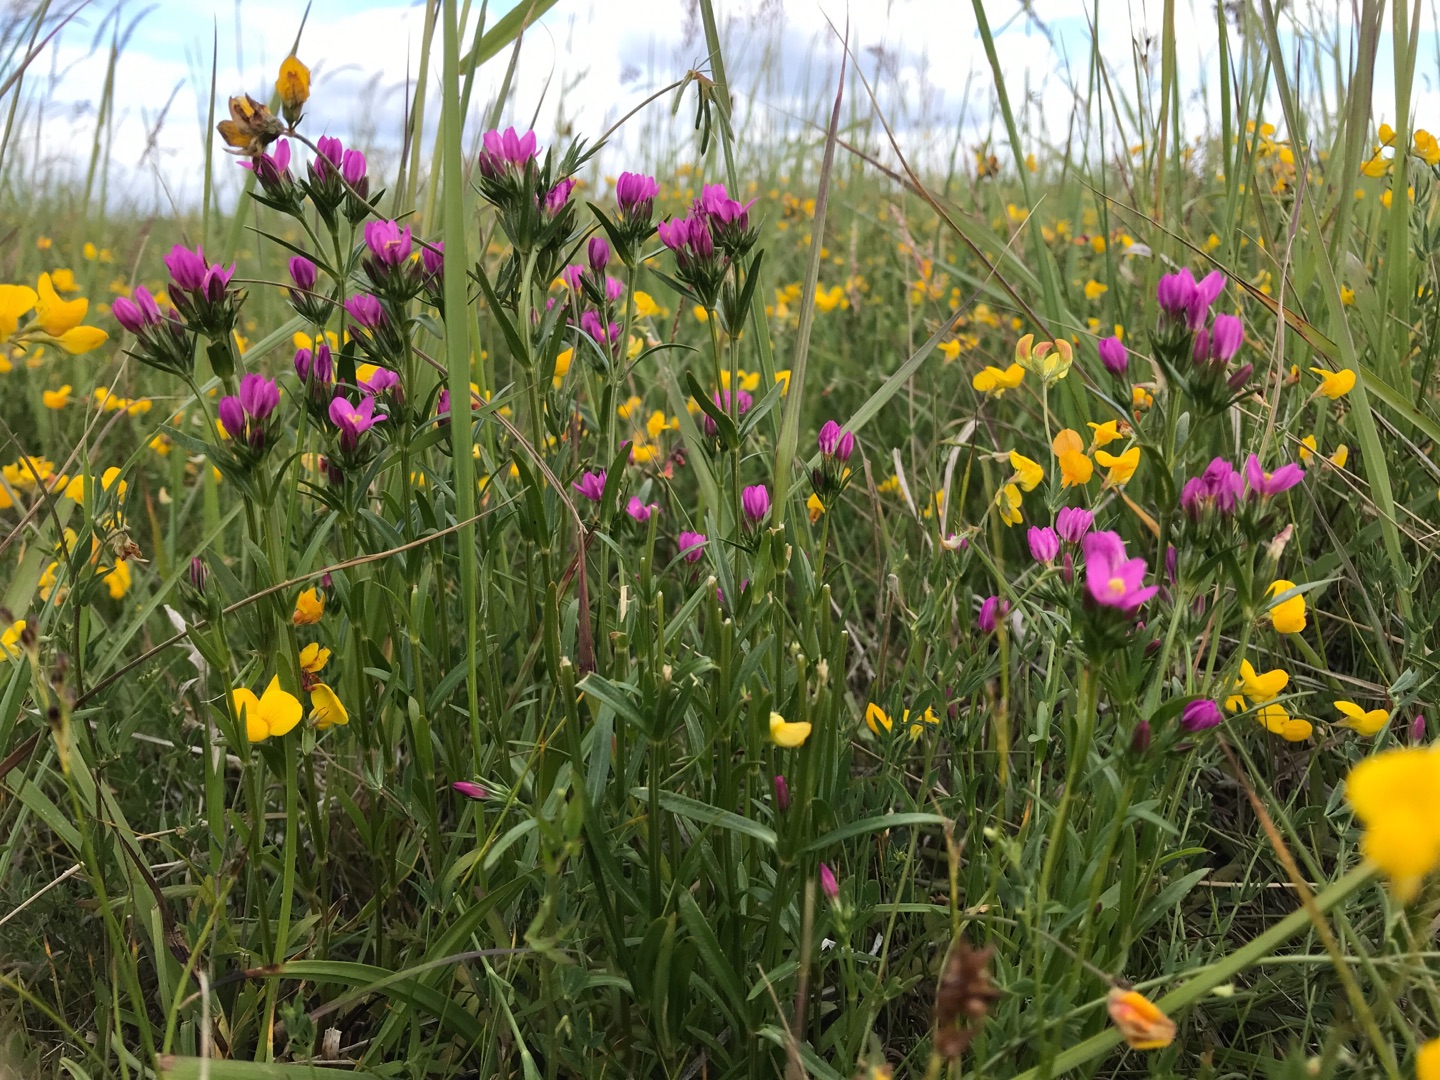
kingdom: Plantae
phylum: Tracheophyta
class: Magnoliopsida
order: Gentianales
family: Gentianaceae
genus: Centaurium
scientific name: Centaurium littorale
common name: Strand-tusindgylden
